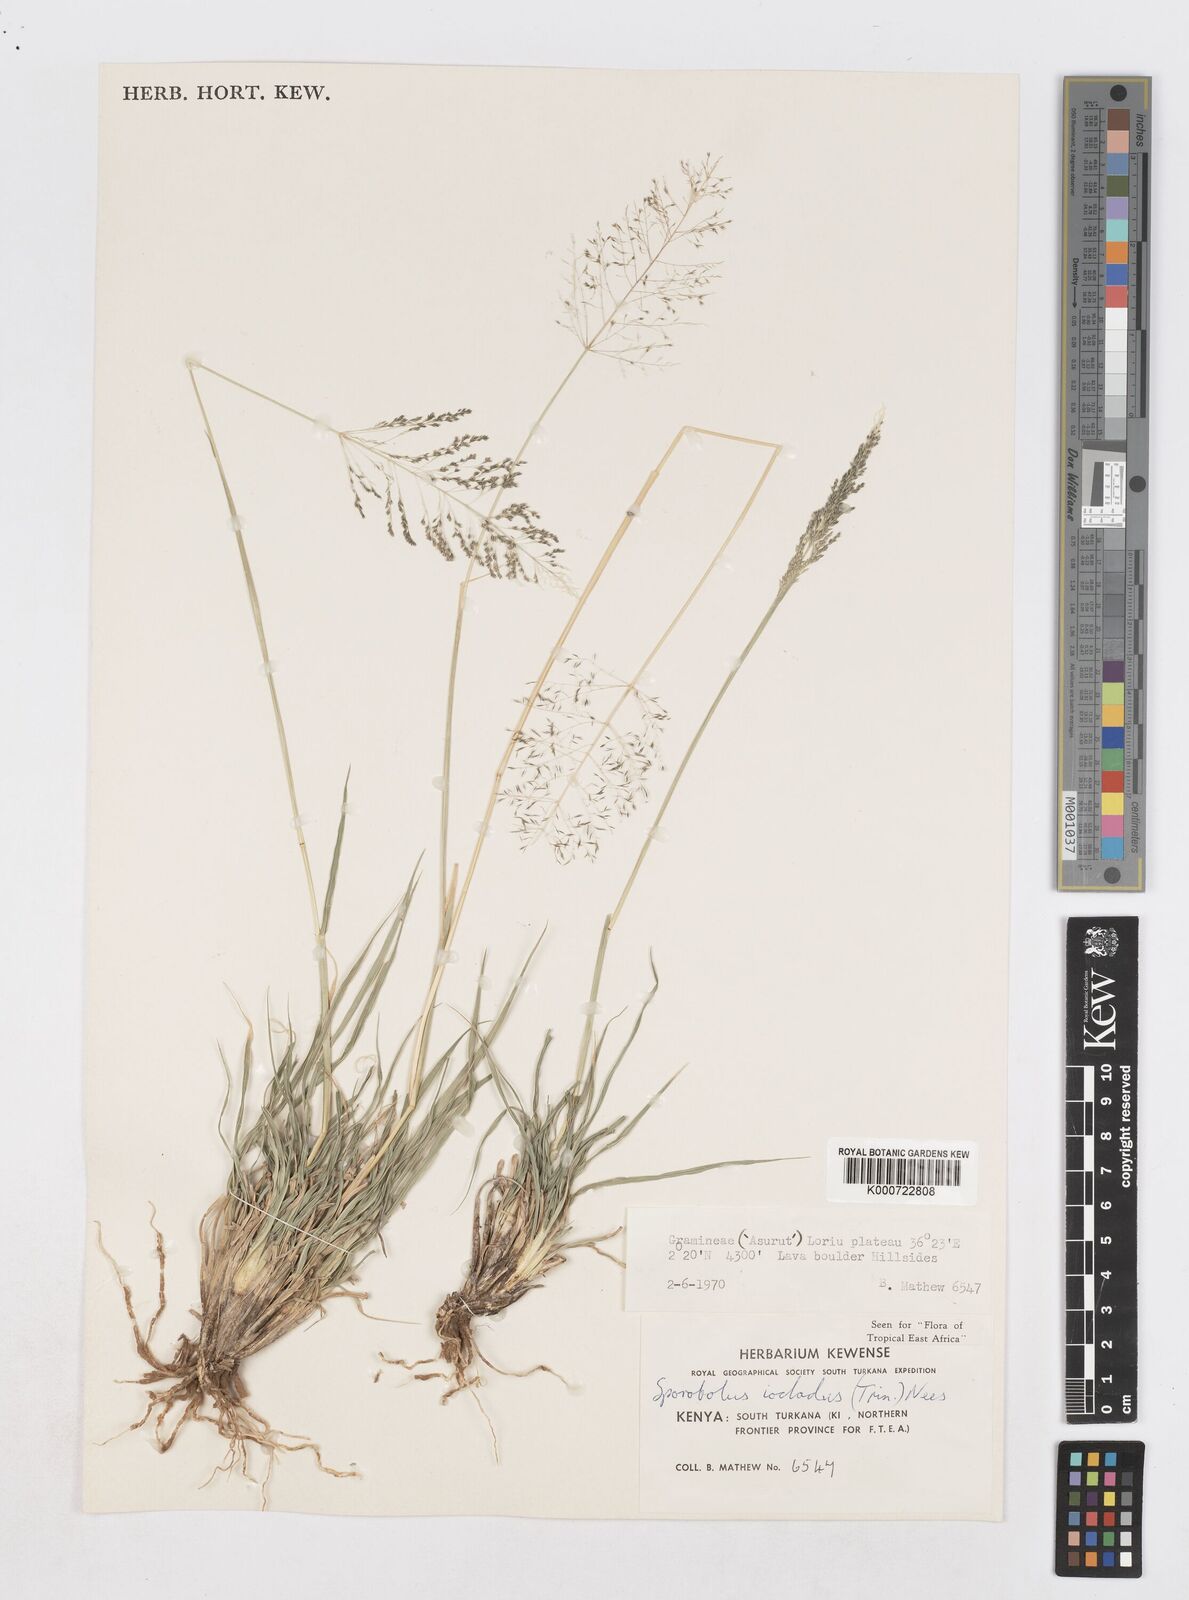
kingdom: Plantae
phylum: Tracheophyta
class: Liliopsida
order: Poales
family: Poaceae
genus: Sporobolus
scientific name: Sporobolus ioclados
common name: Pan dropseed
